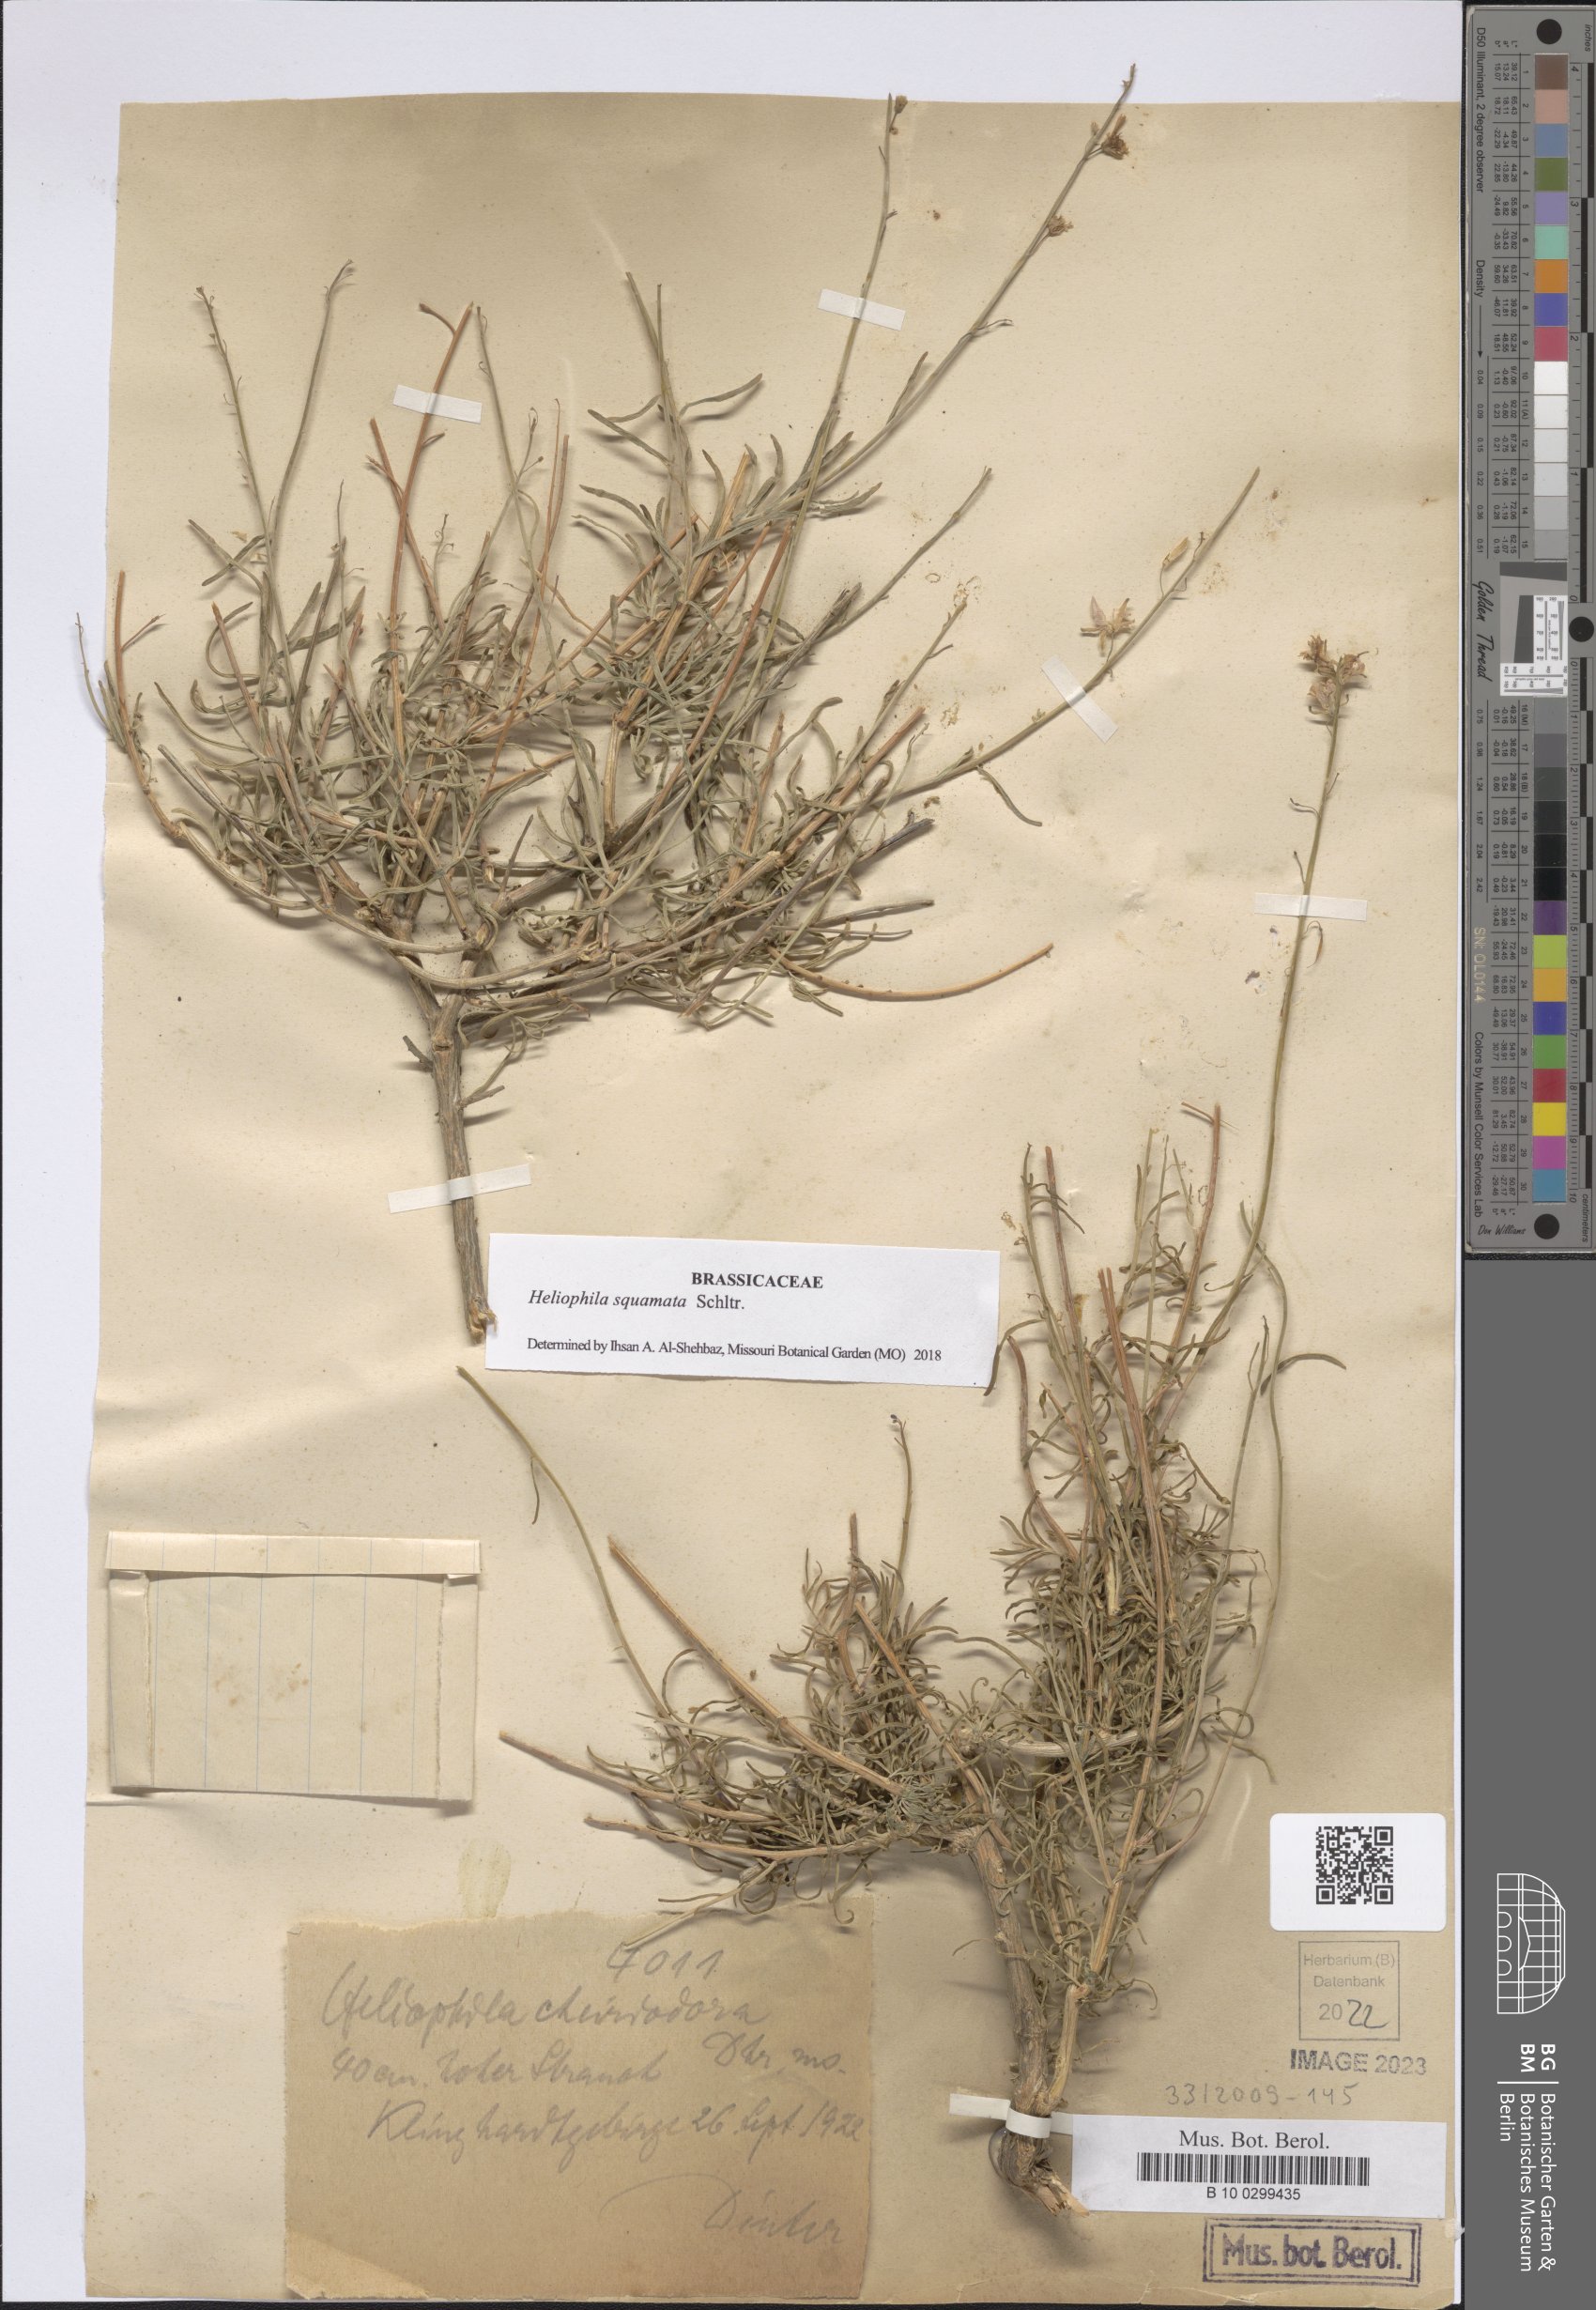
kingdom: Plantae
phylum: Tracheophyta
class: Magnoliopsida
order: Brassicales
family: Brassicaceae
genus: Heliophila
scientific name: Heliophila cornuta
